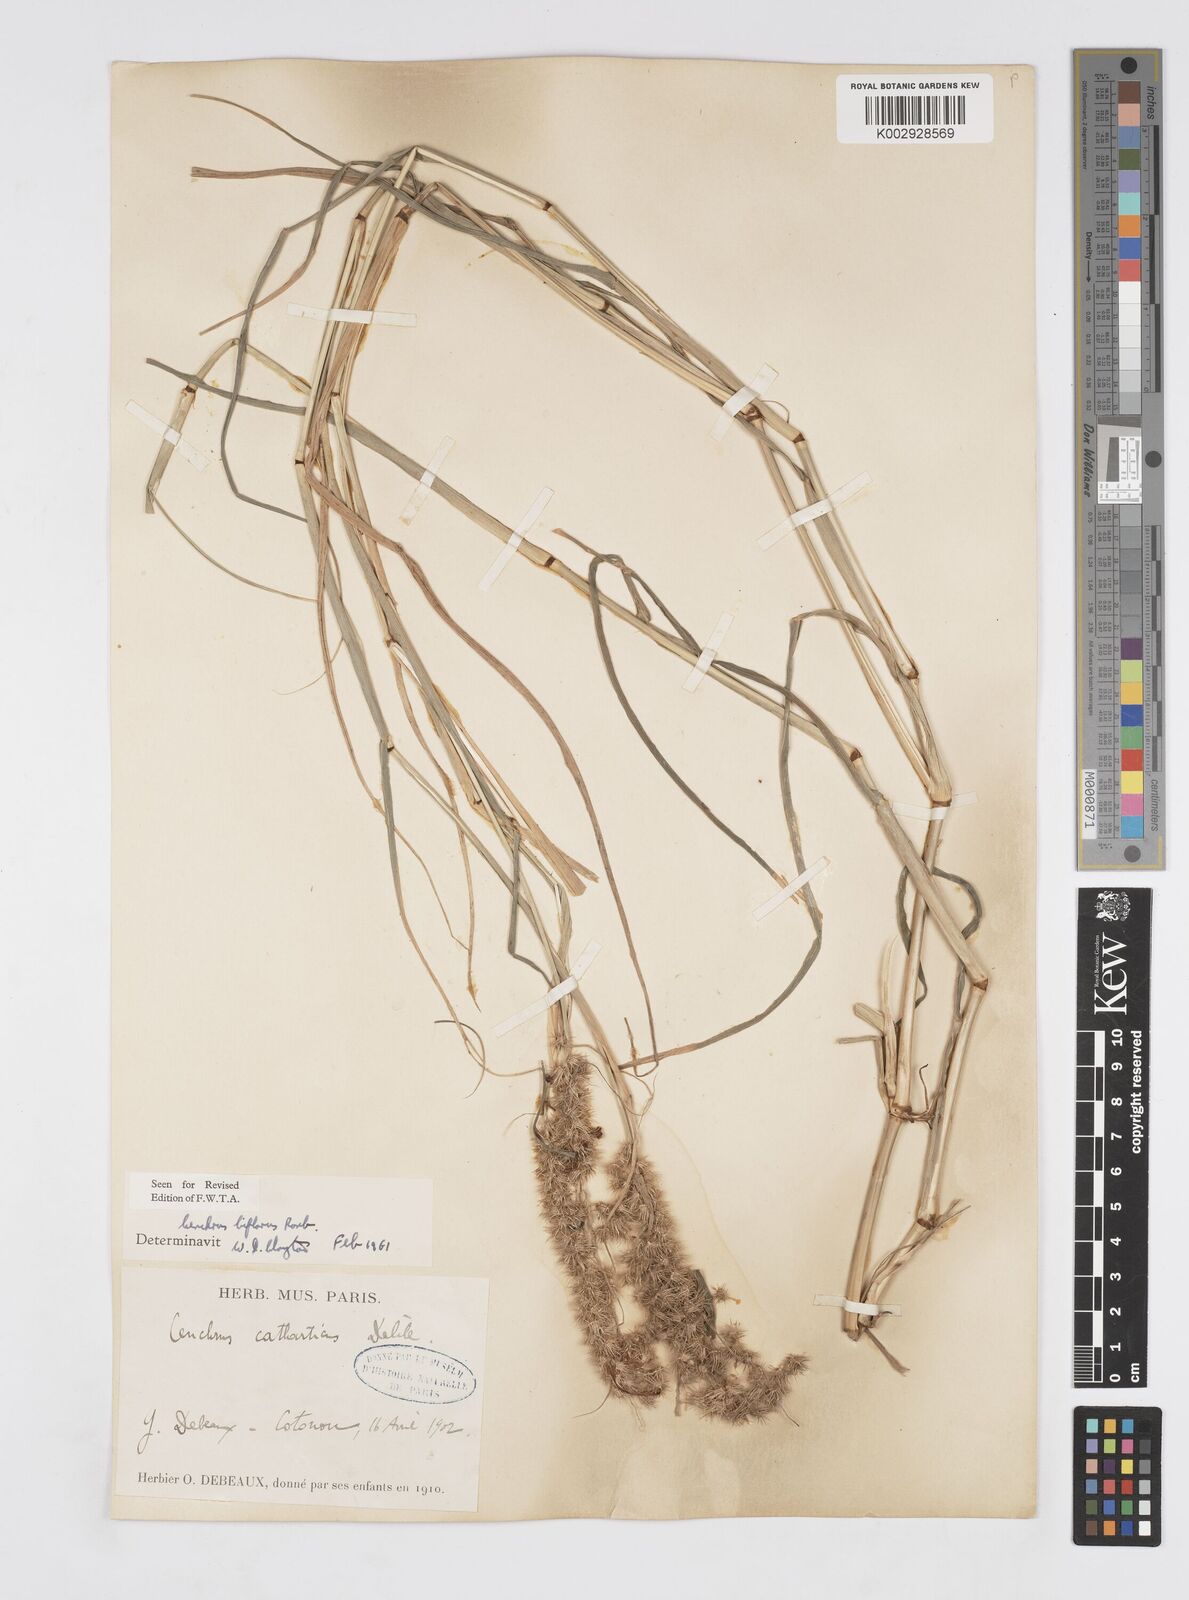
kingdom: Plantae
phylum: Tracheophyta
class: Liliopsida
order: Poales
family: Poaceae
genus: Cenchrus
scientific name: Cenchrus biflorus
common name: Indian sandbur
